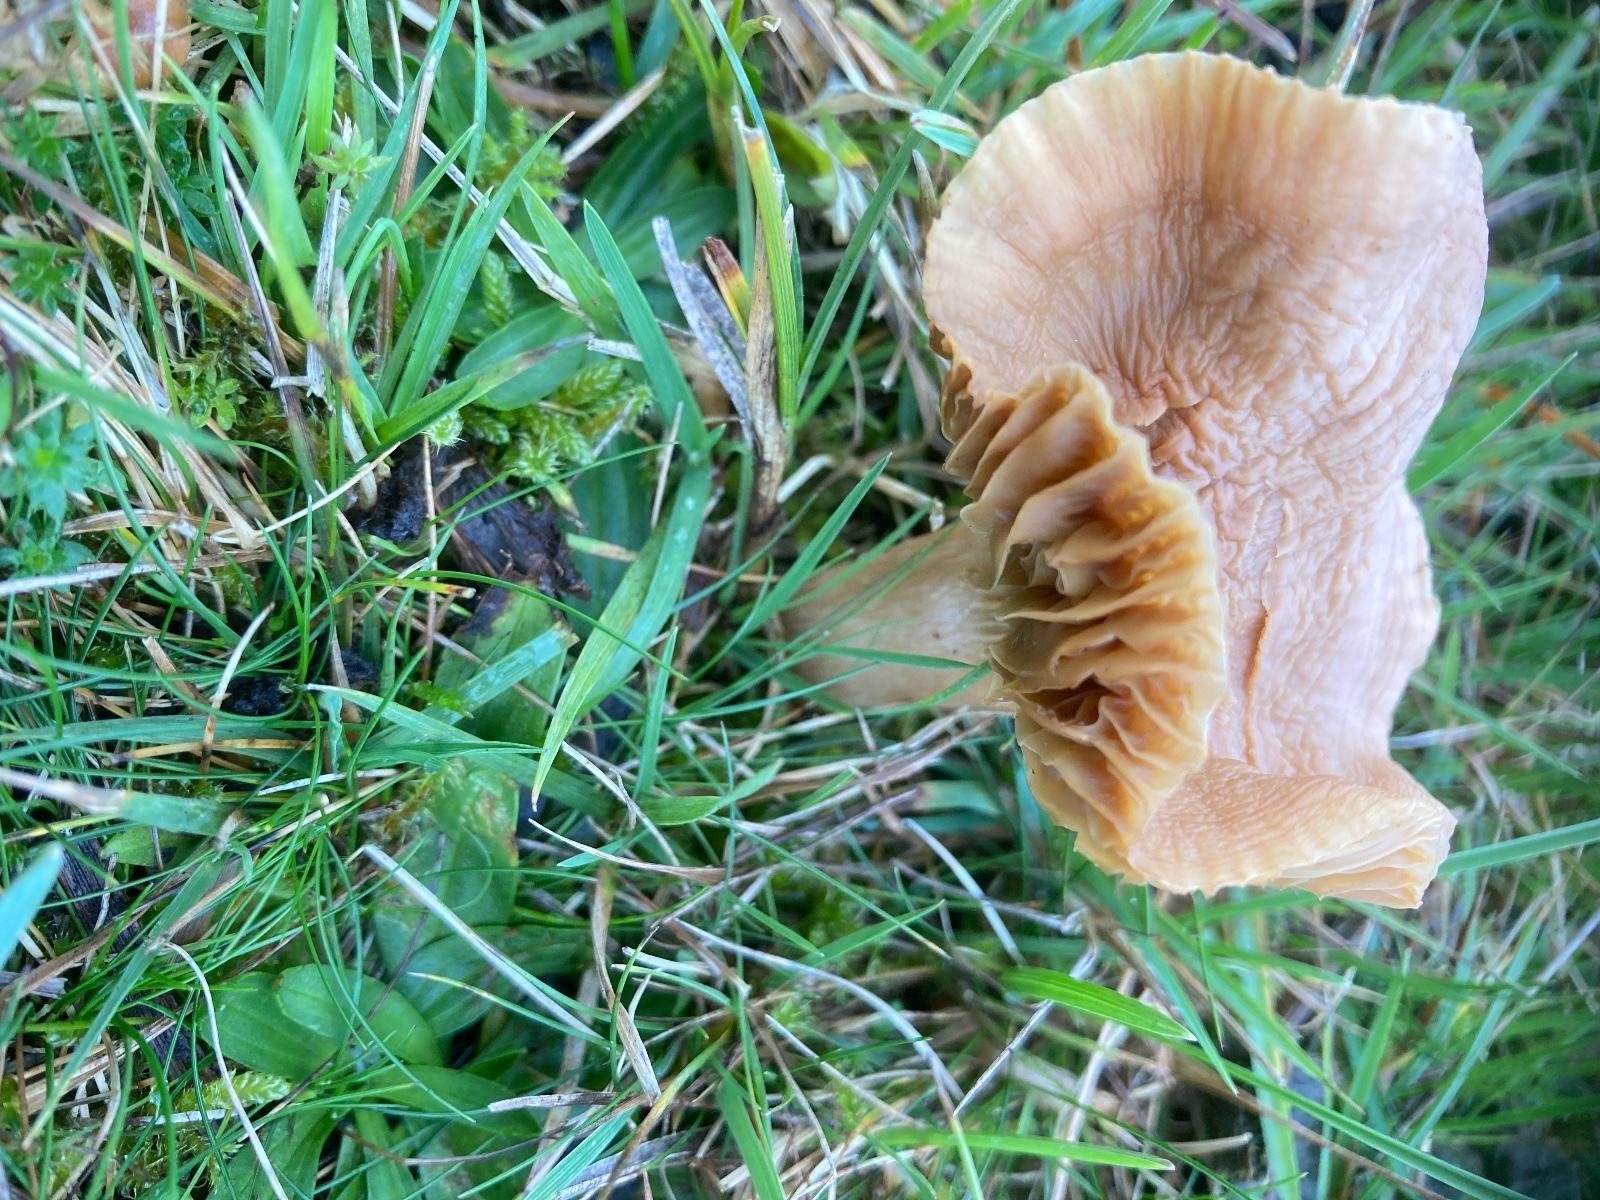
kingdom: Fungi
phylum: Basidiomycota
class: Agaricomycetes
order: Agaricales
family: Hygrophoraceae
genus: Cuphophyllus
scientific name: Cuphophyllus
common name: vokshat
